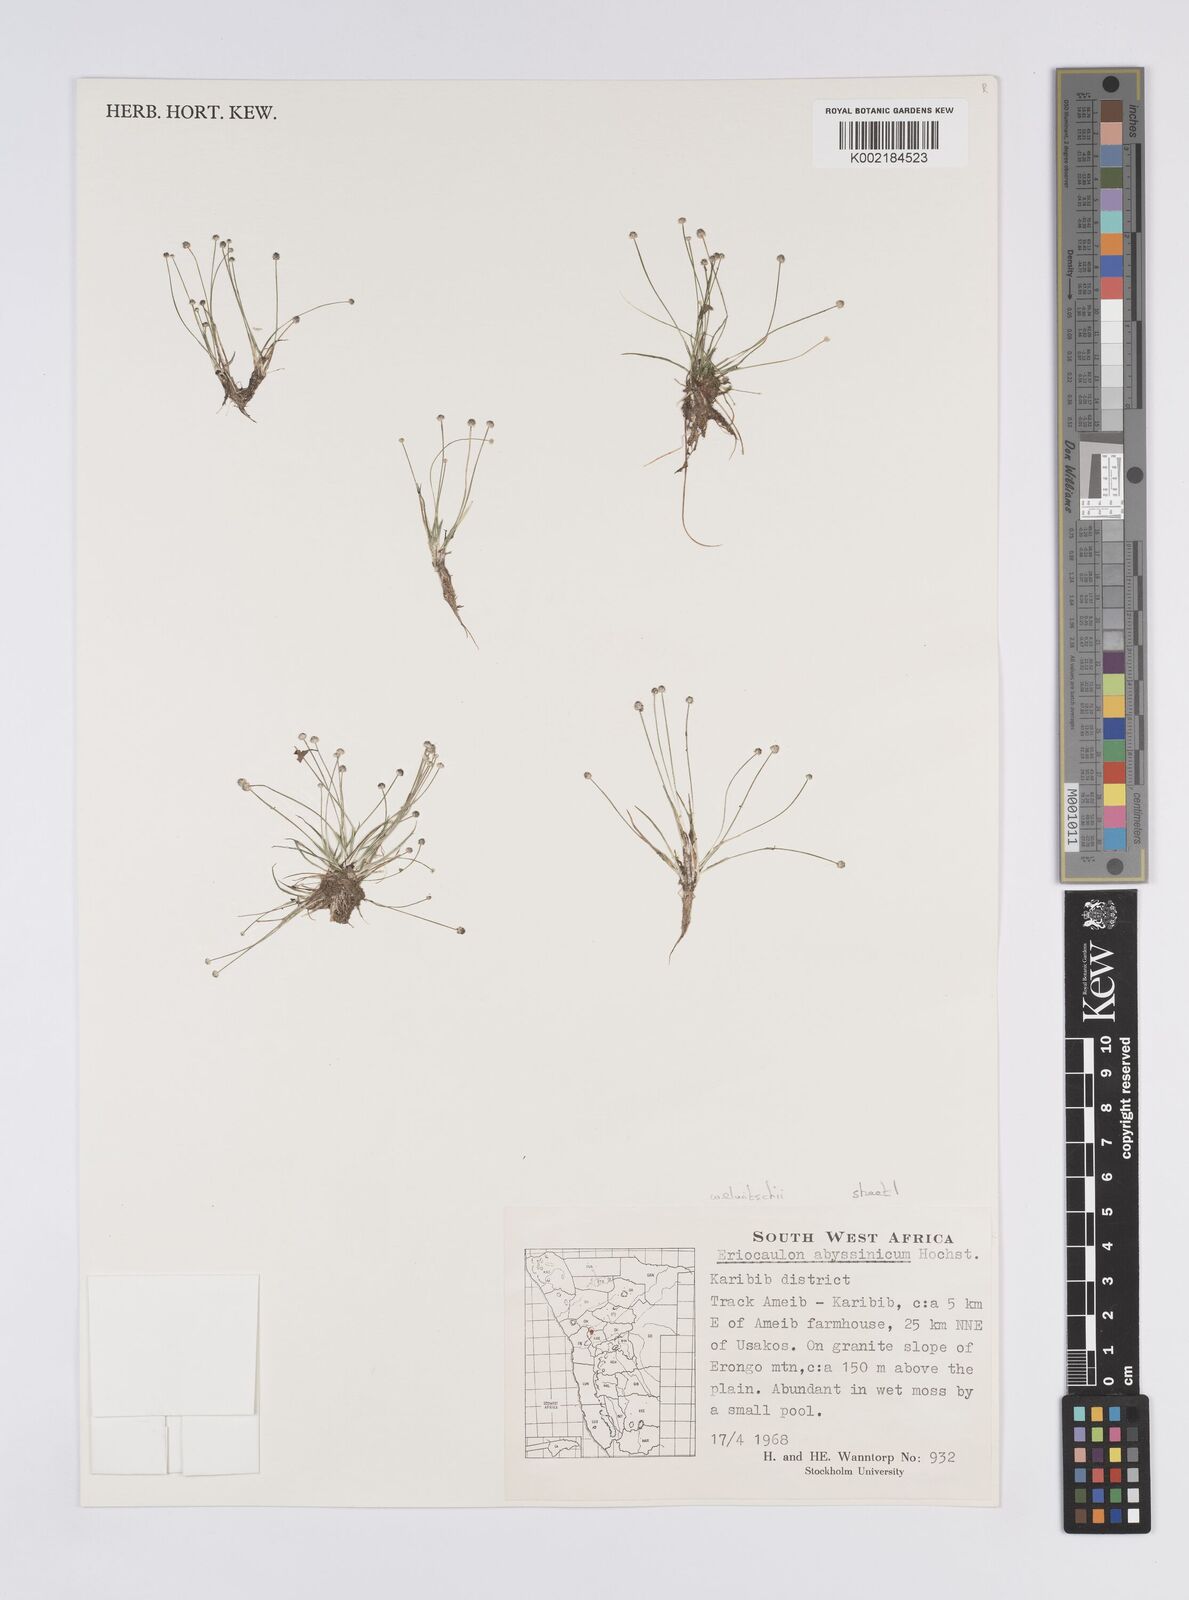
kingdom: Plantae
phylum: Tracheophyta
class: Liliopsida
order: Poales
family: Eriocaulaceae
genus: Eriocaulon
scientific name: Eriocaulon welwitschii
